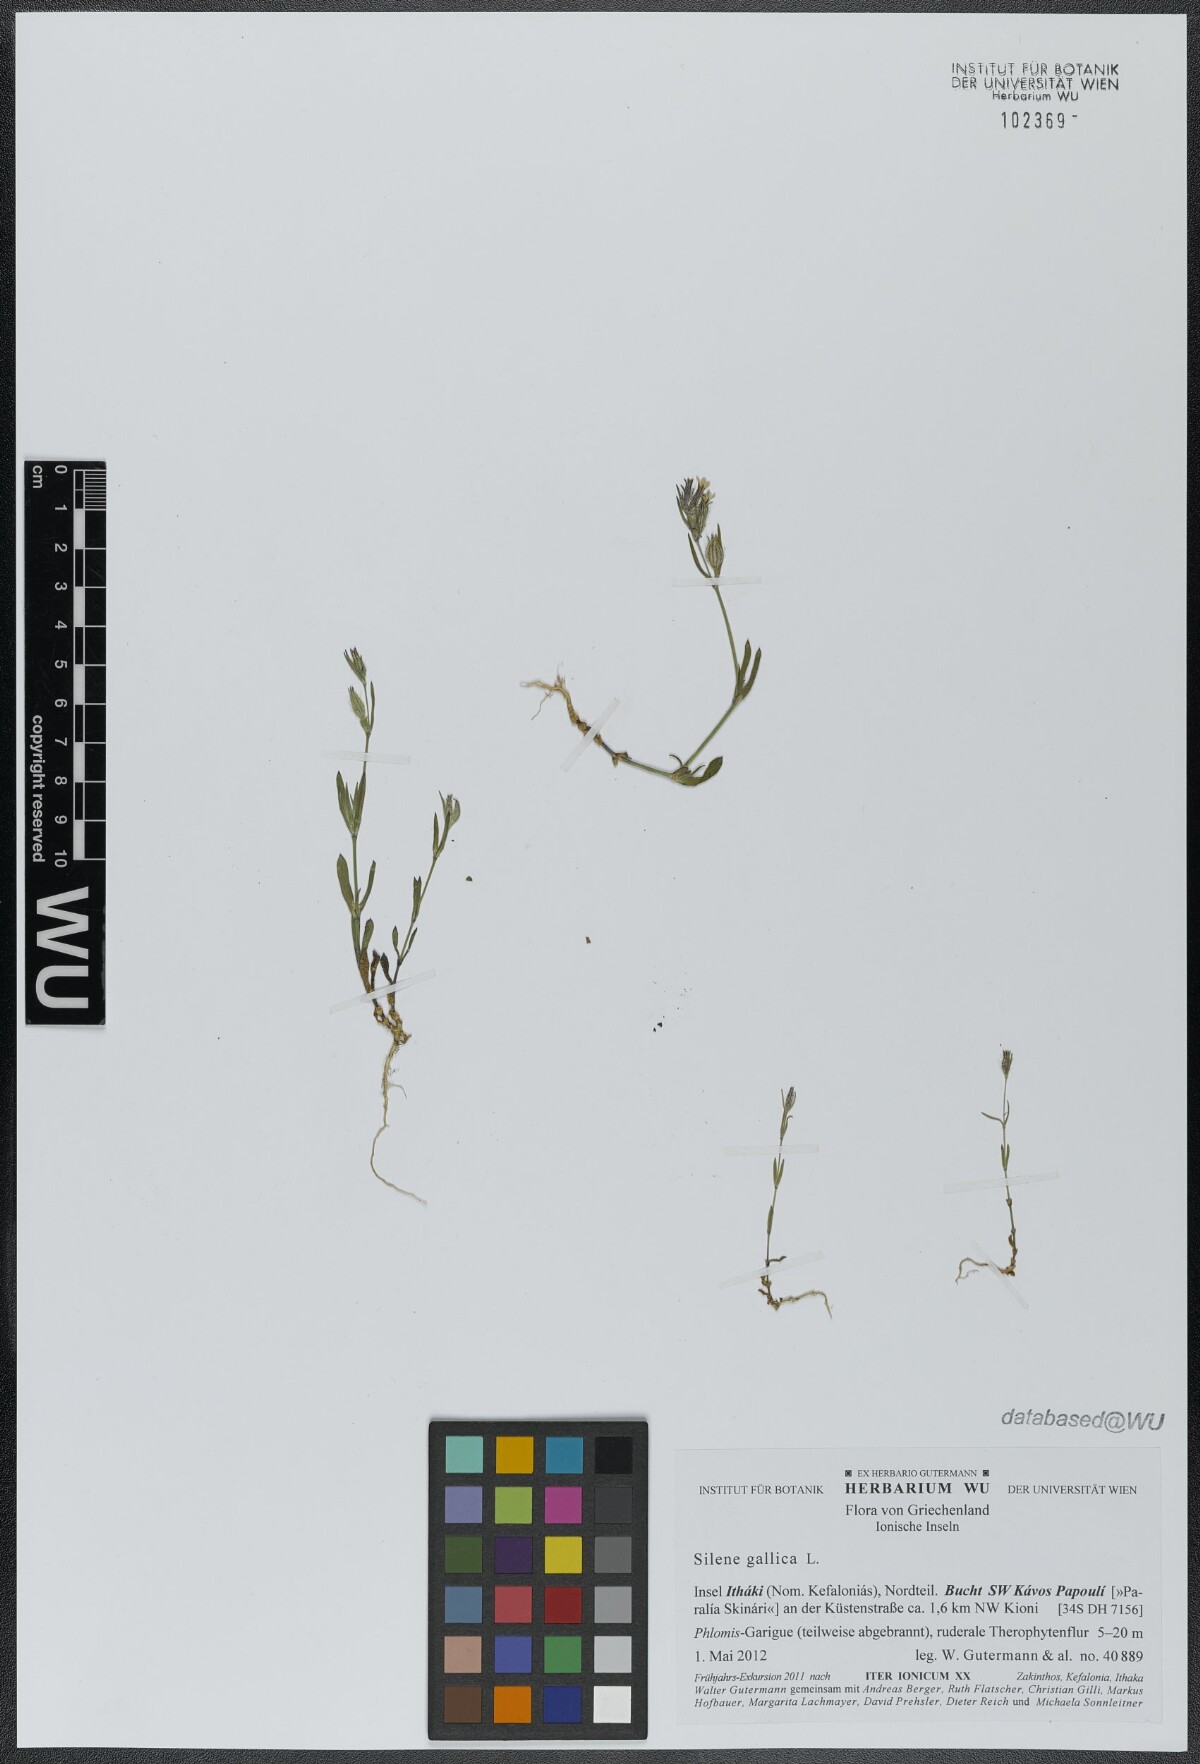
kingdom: Plantae
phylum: Tracheophyta
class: Magnoliopsida
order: Caryophyllales
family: Caryophyllaceae
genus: Silene
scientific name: Silene gallica
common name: Small-flowered catchfly
